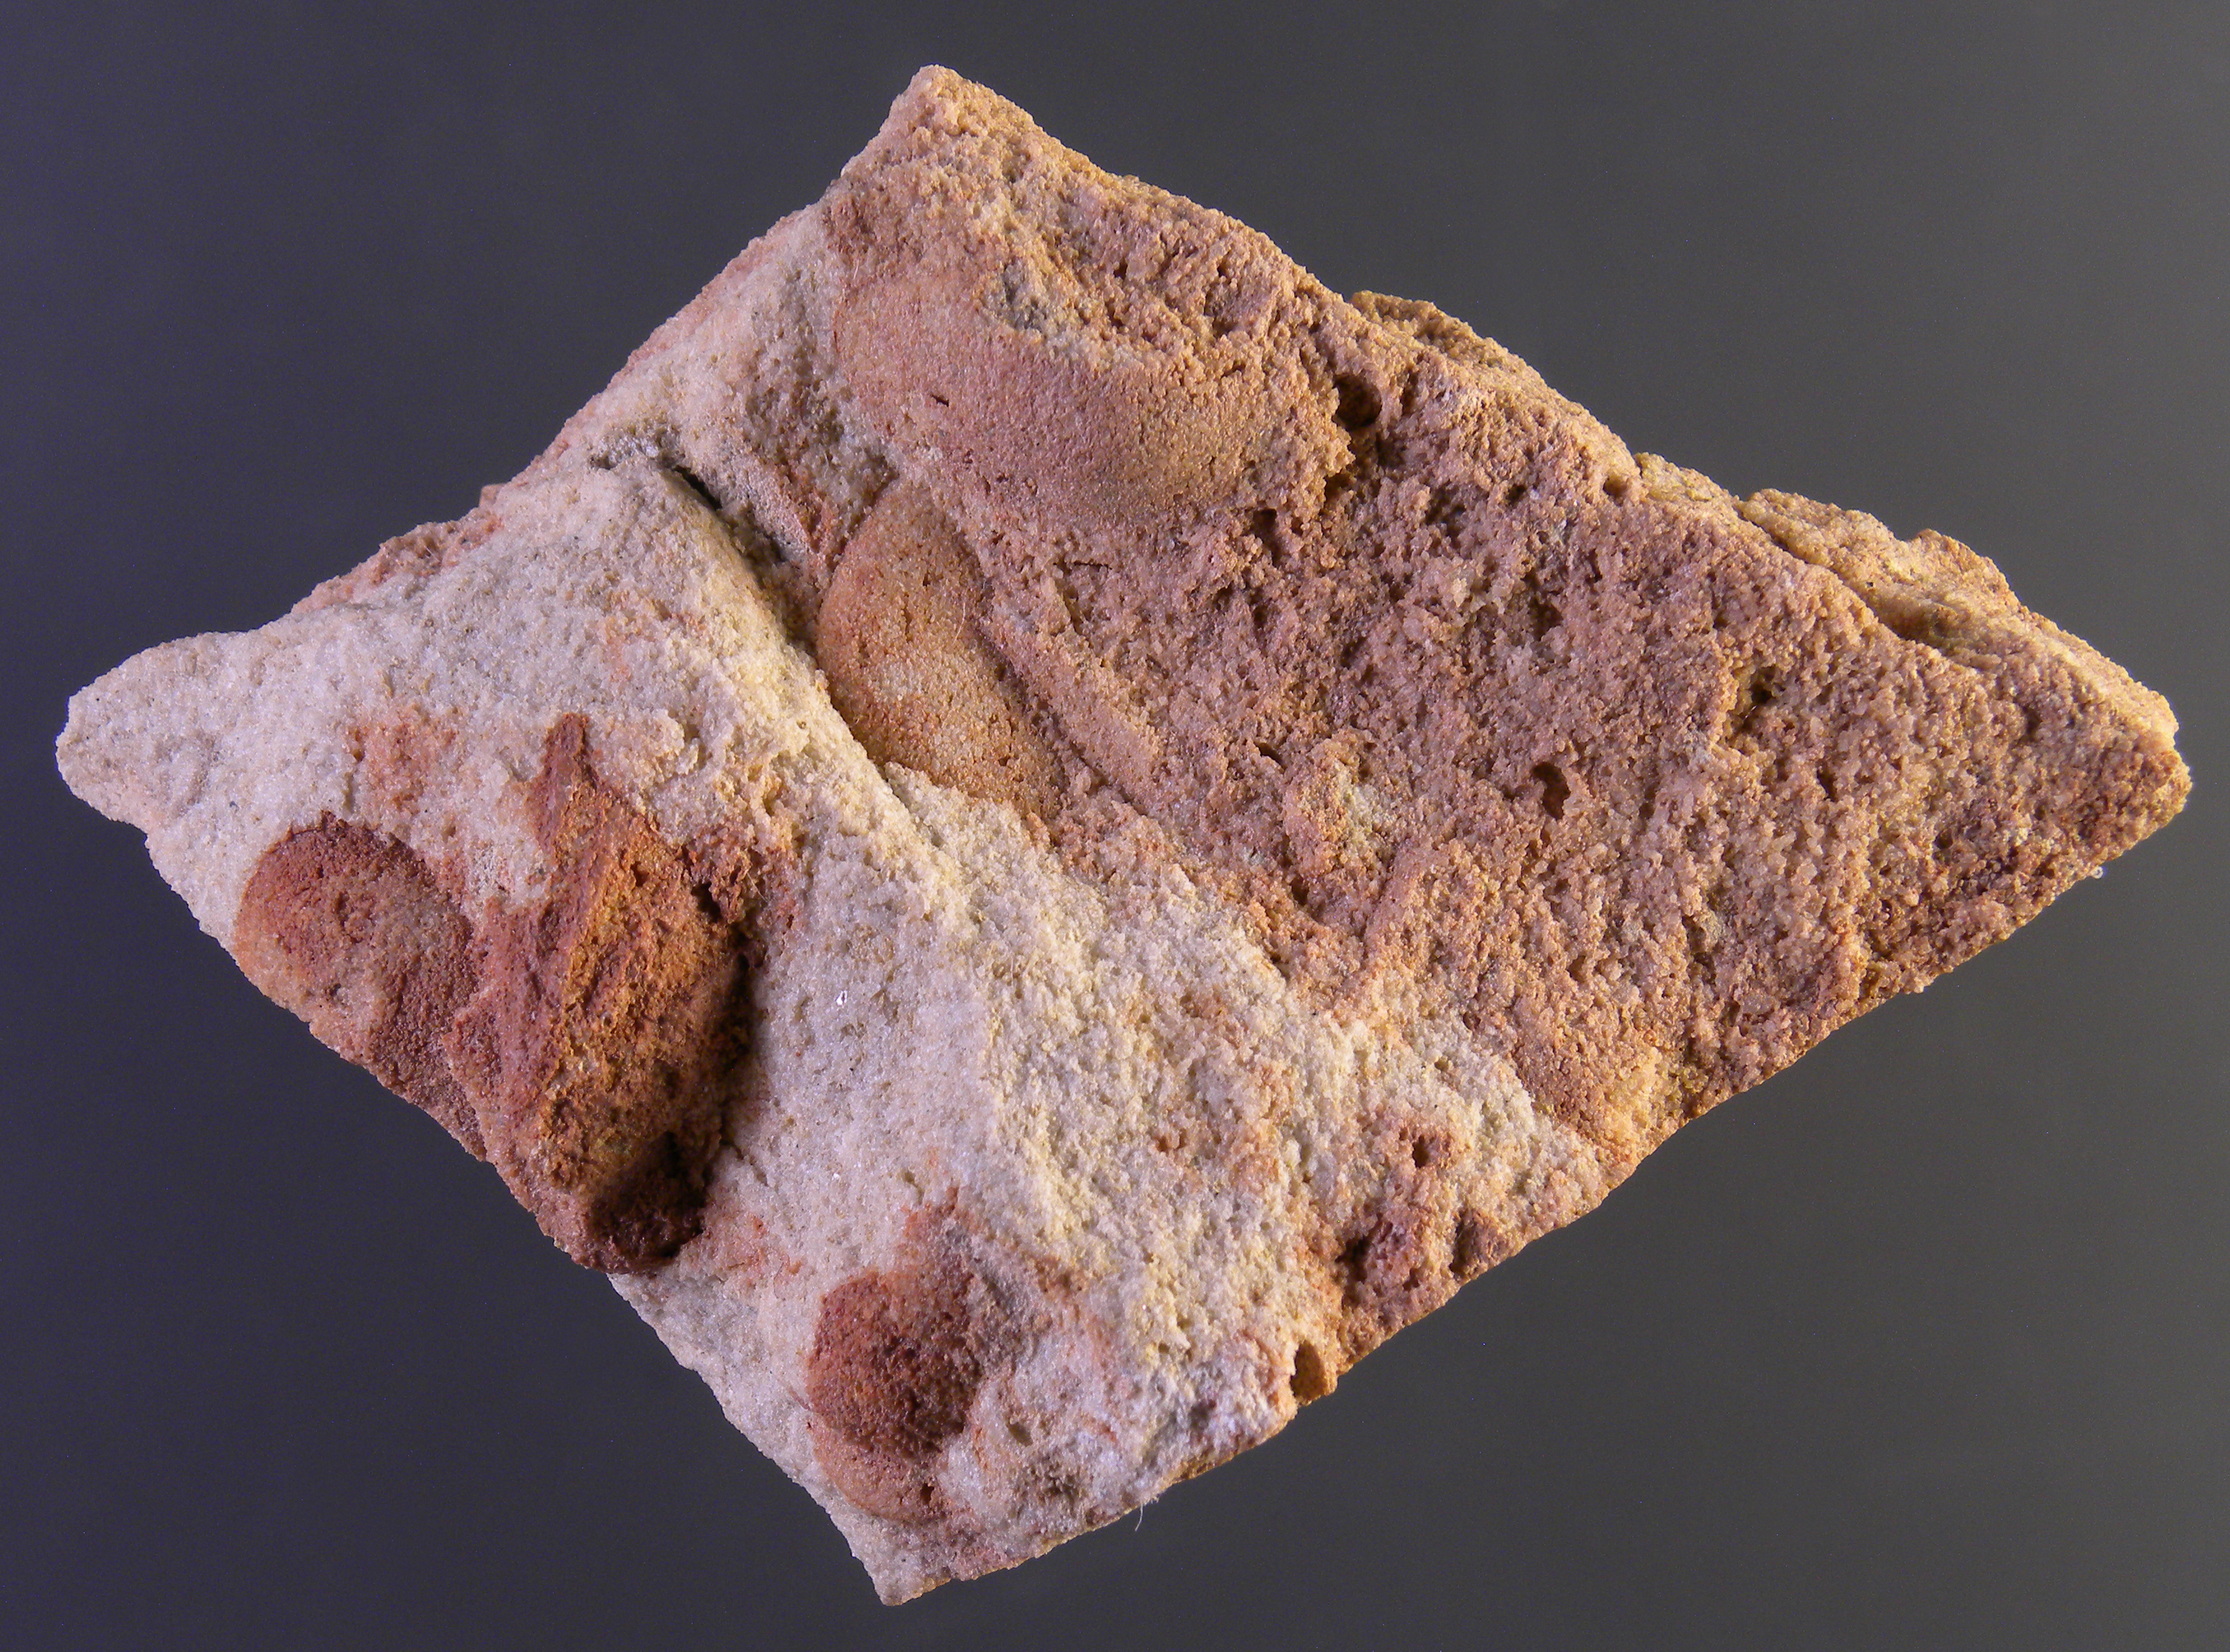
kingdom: Animalia
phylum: Mollusca
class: Bivalvia
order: Ostreida
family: Pterineidae
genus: Leptodesma
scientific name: Leptodesma
